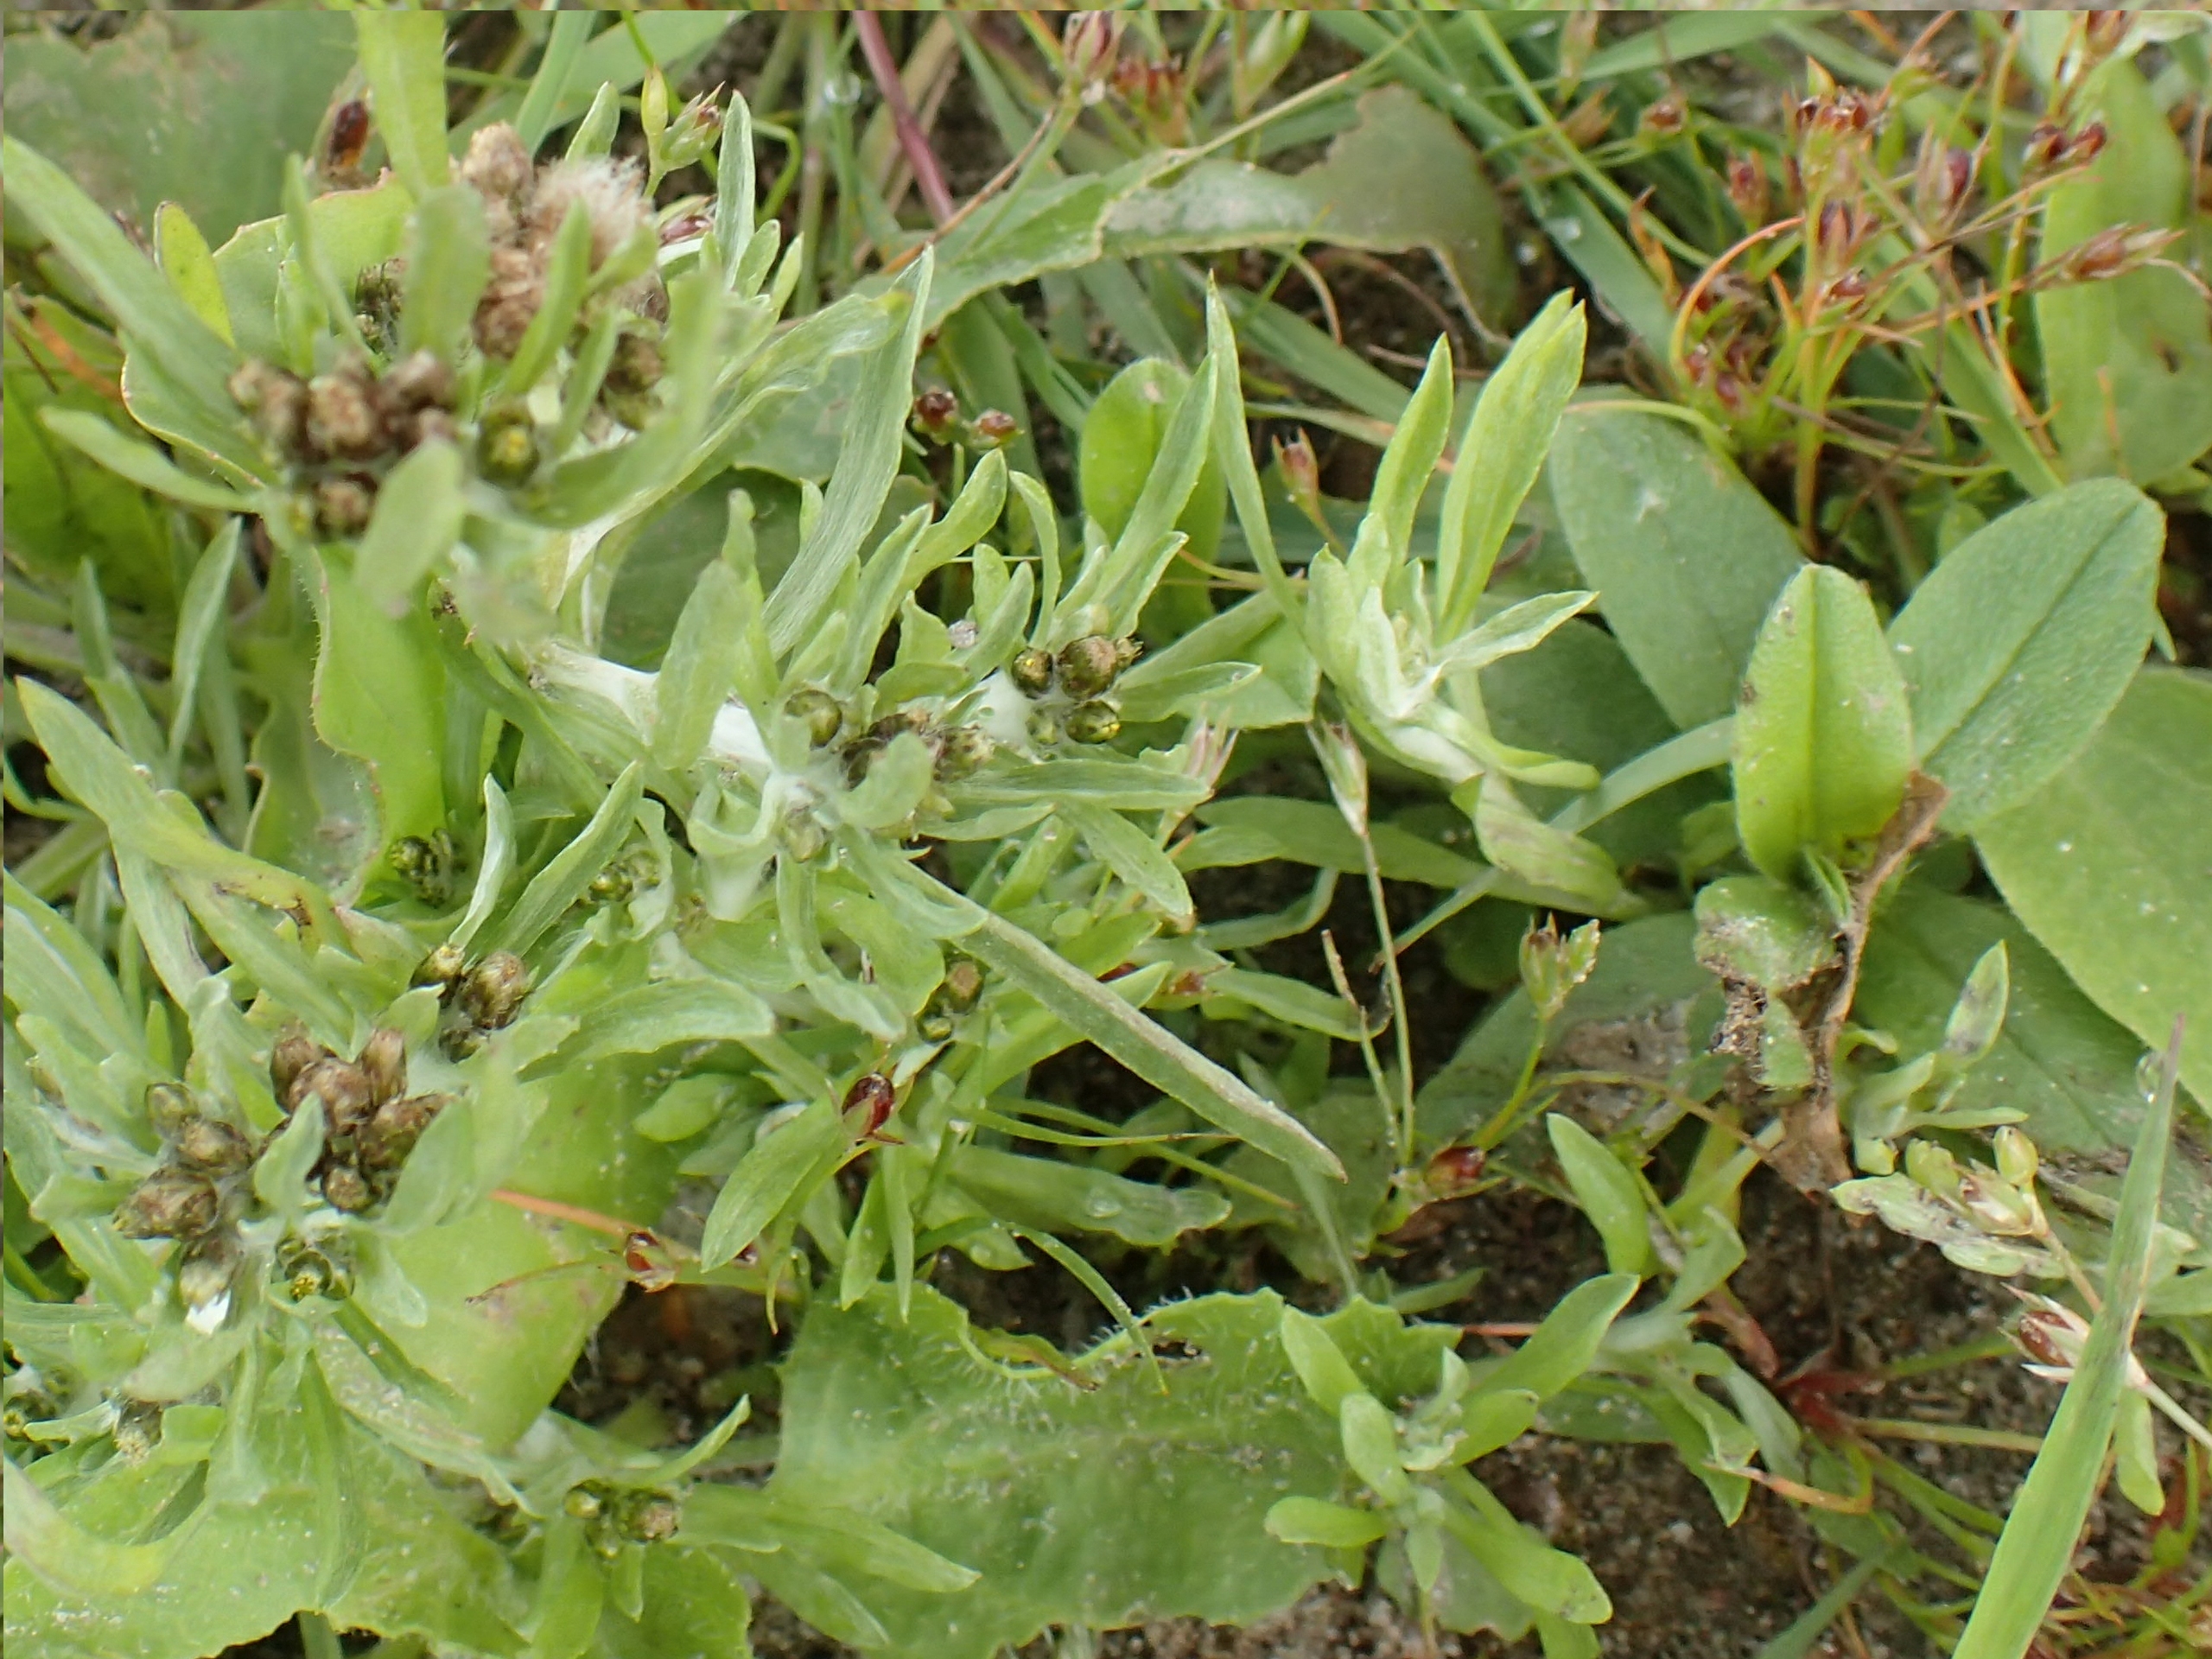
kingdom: Plantae
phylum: Tracheophyta
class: Magnoliopsida
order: Asterales
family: Asteraceae
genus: Gnaphalium
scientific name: Gnaphalium uliginosum
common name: Sump-evighedsblomst
